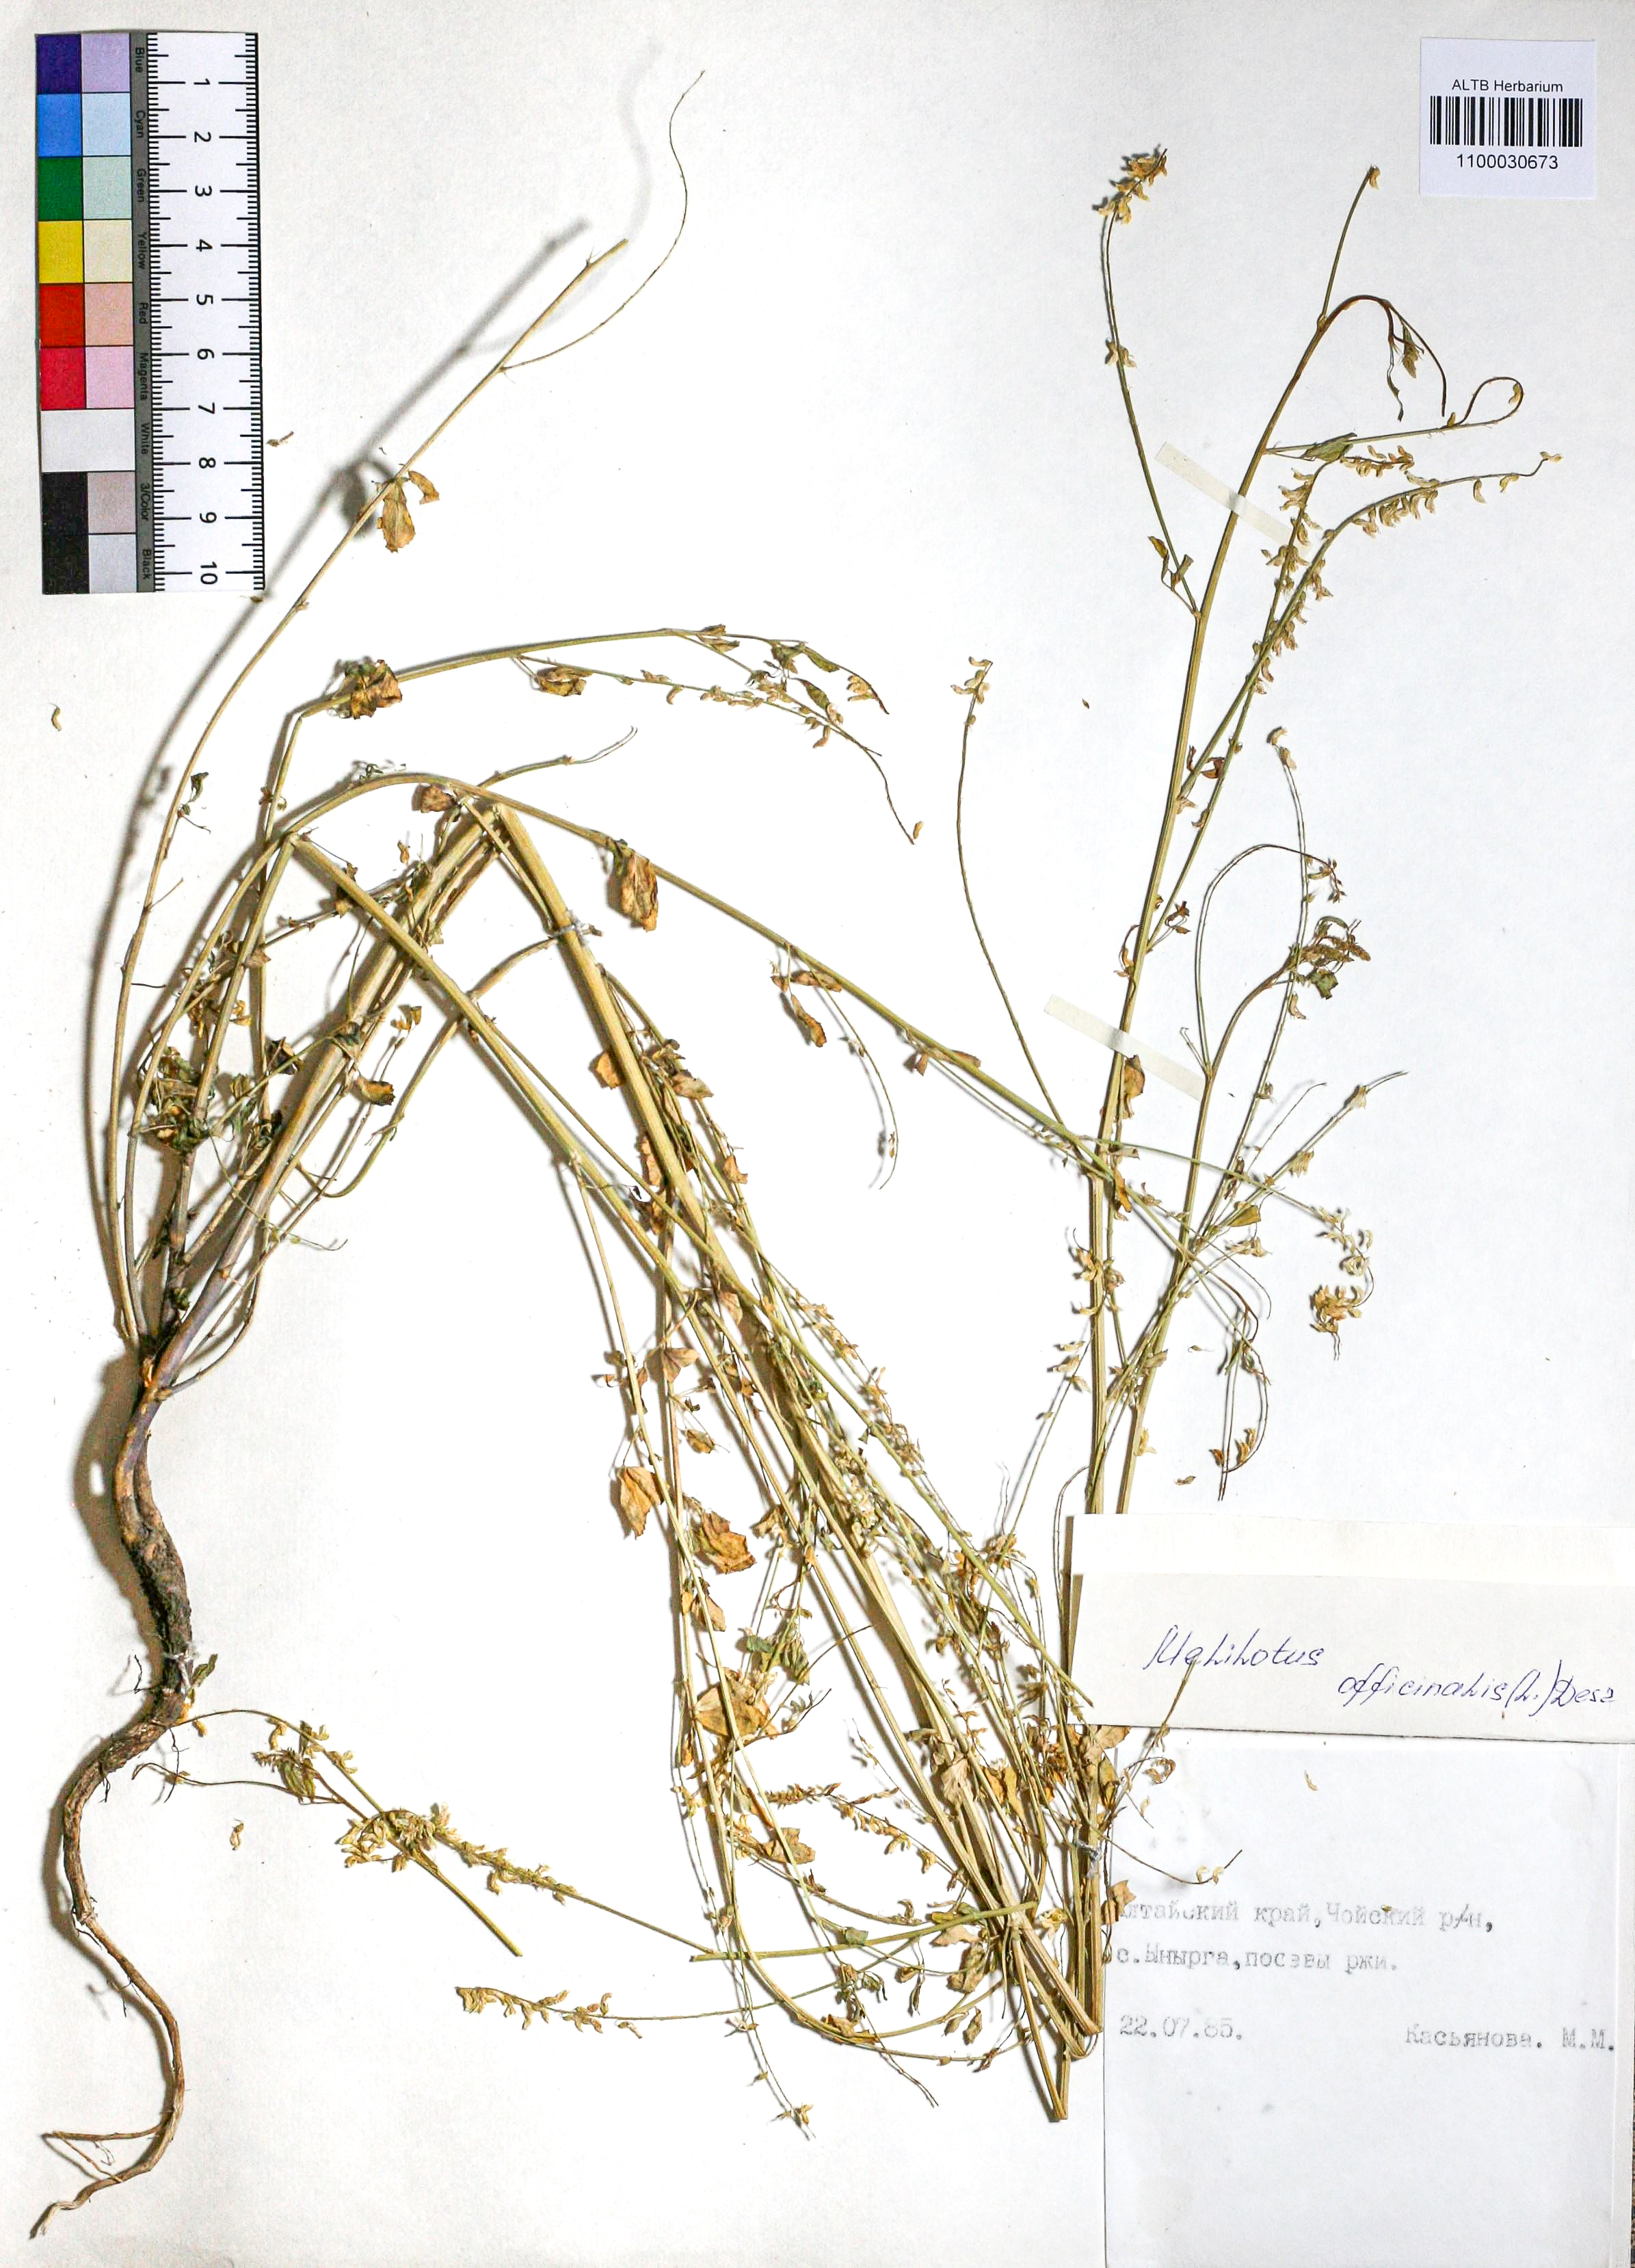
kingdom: Plantae
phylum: Tracheophyta
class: Magnoliopsida
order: Fabales
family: Fabaceae
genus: Melilotus
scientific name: Melilotus officinalis
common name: Sweetclover
